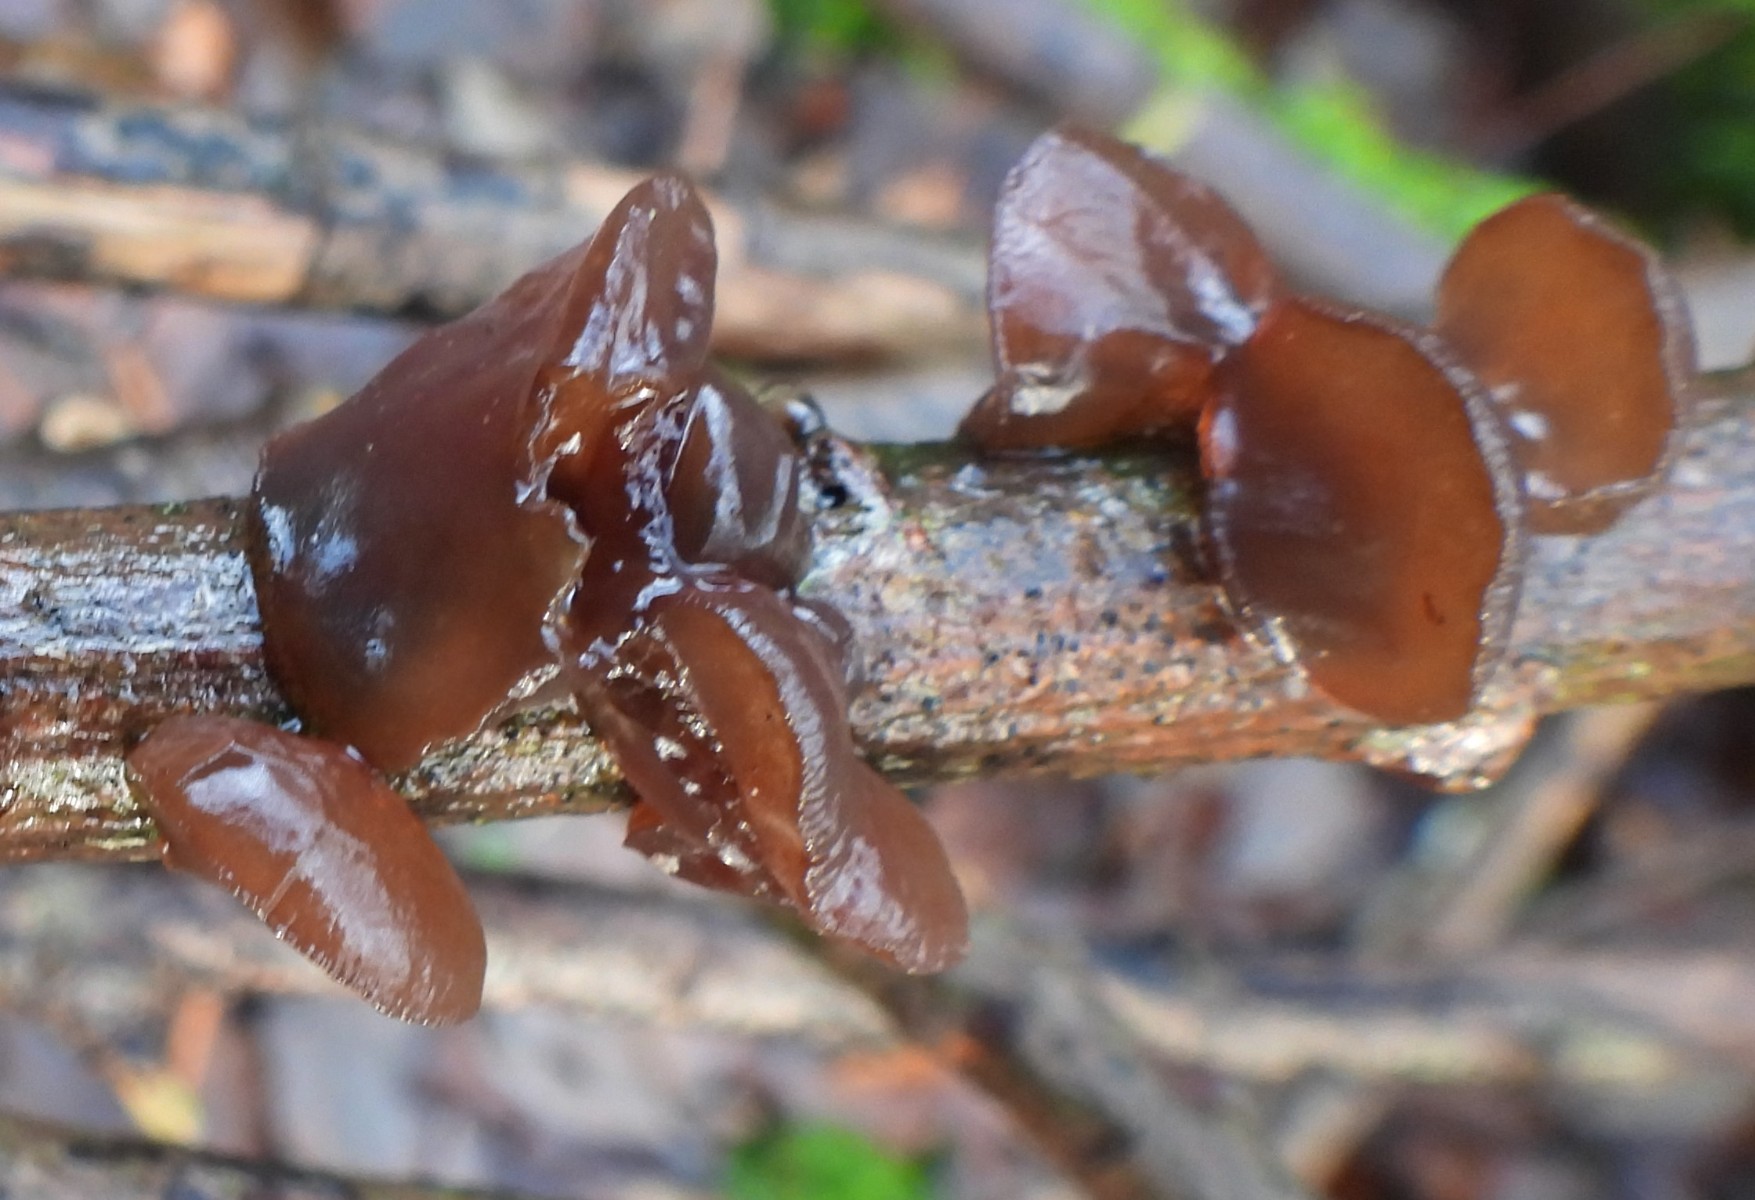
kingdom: Fungi
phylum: Basidiomycota
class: Agaricomycetes
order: Auriculariales
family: Auriculariaceae
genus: Exidia
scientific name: Exidia recisa
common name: pile-bævretop
